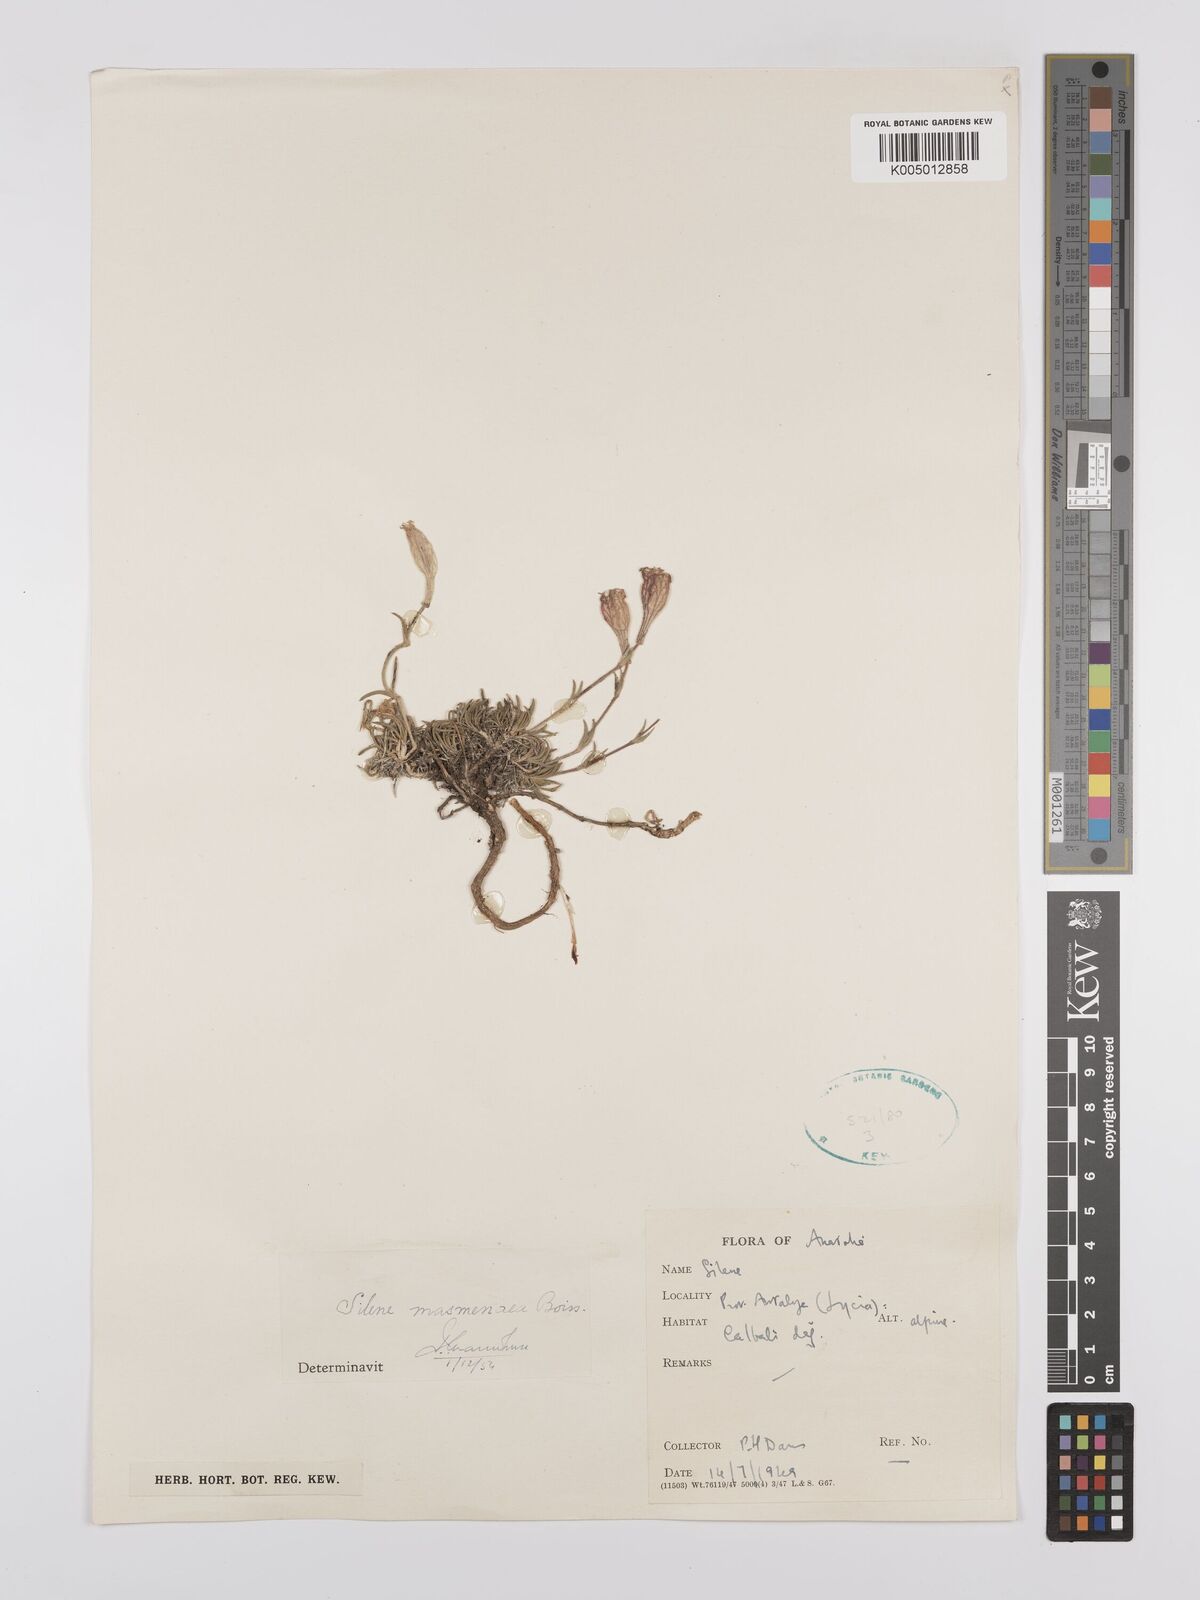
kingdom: Plantae
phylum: Tracheophyta
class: Magnoliopsida
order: Caryophyllales
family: Caryophyllaceae
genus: Silene
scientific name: Silene caryophylloides
